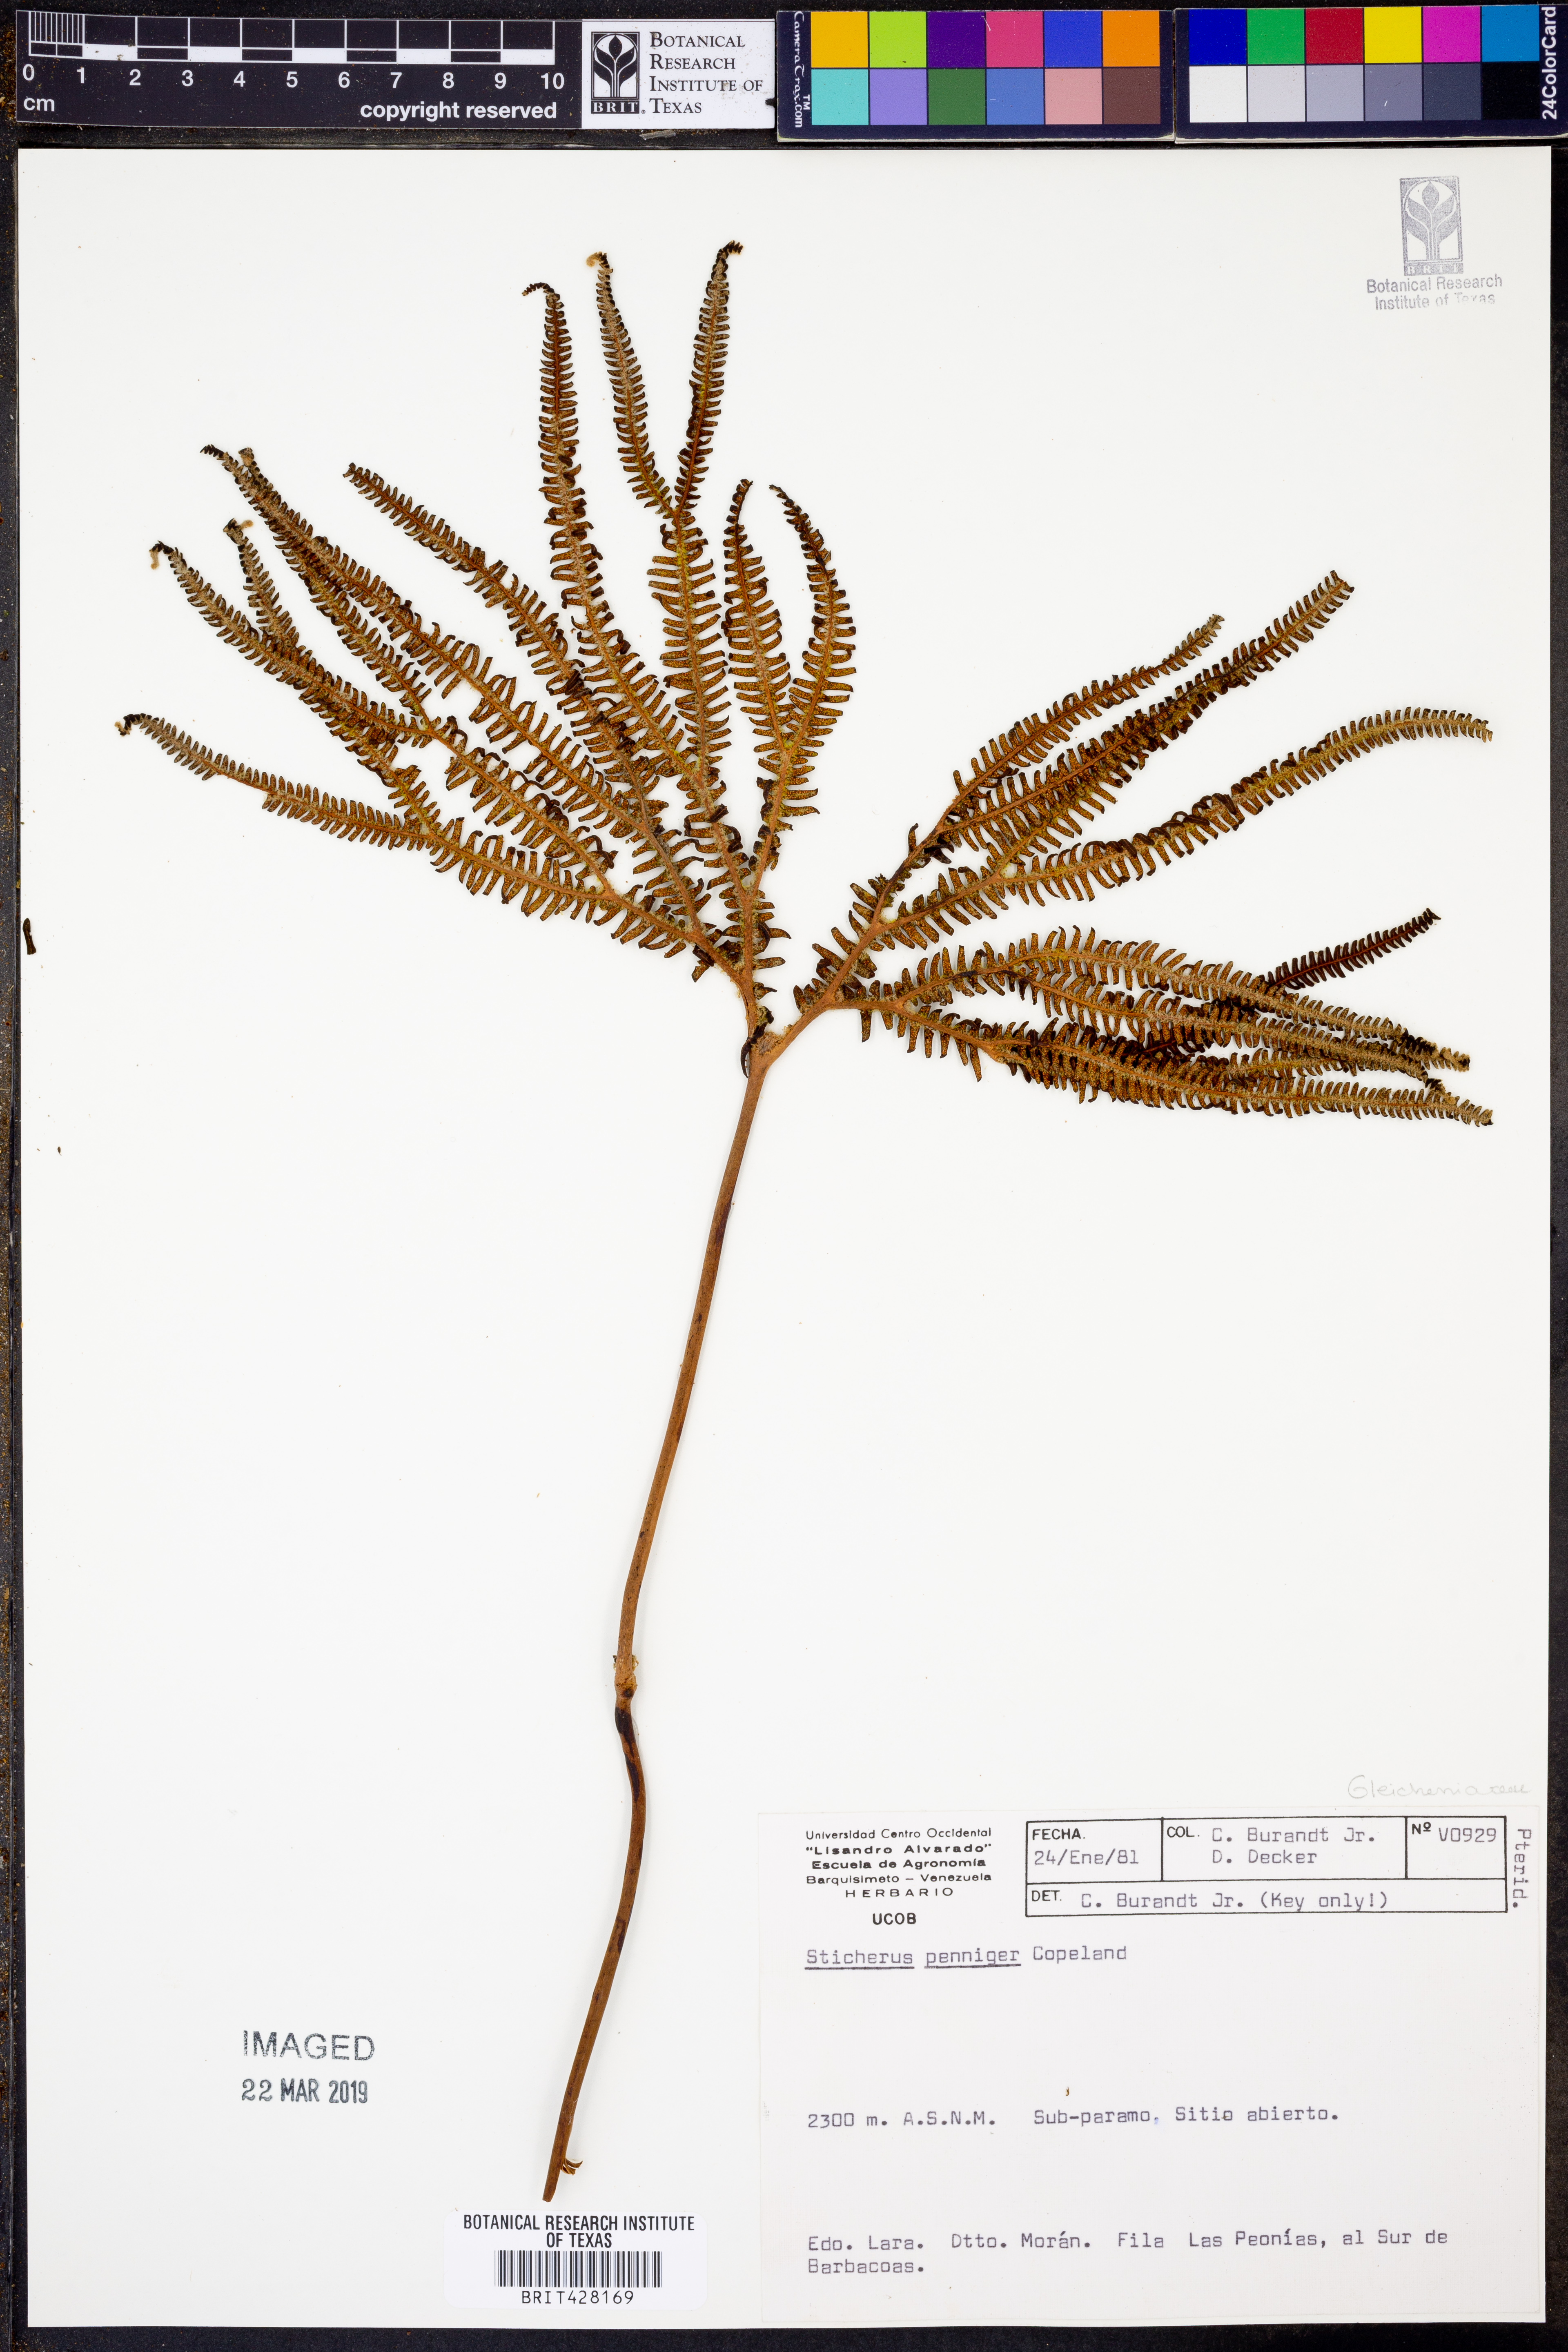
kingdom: Plantae
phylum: Tracheophyta
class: Polypodiopsida
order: Gleicheniales
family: Gleicheniaceae
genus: Sticherus
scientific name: Sticherus penniger
